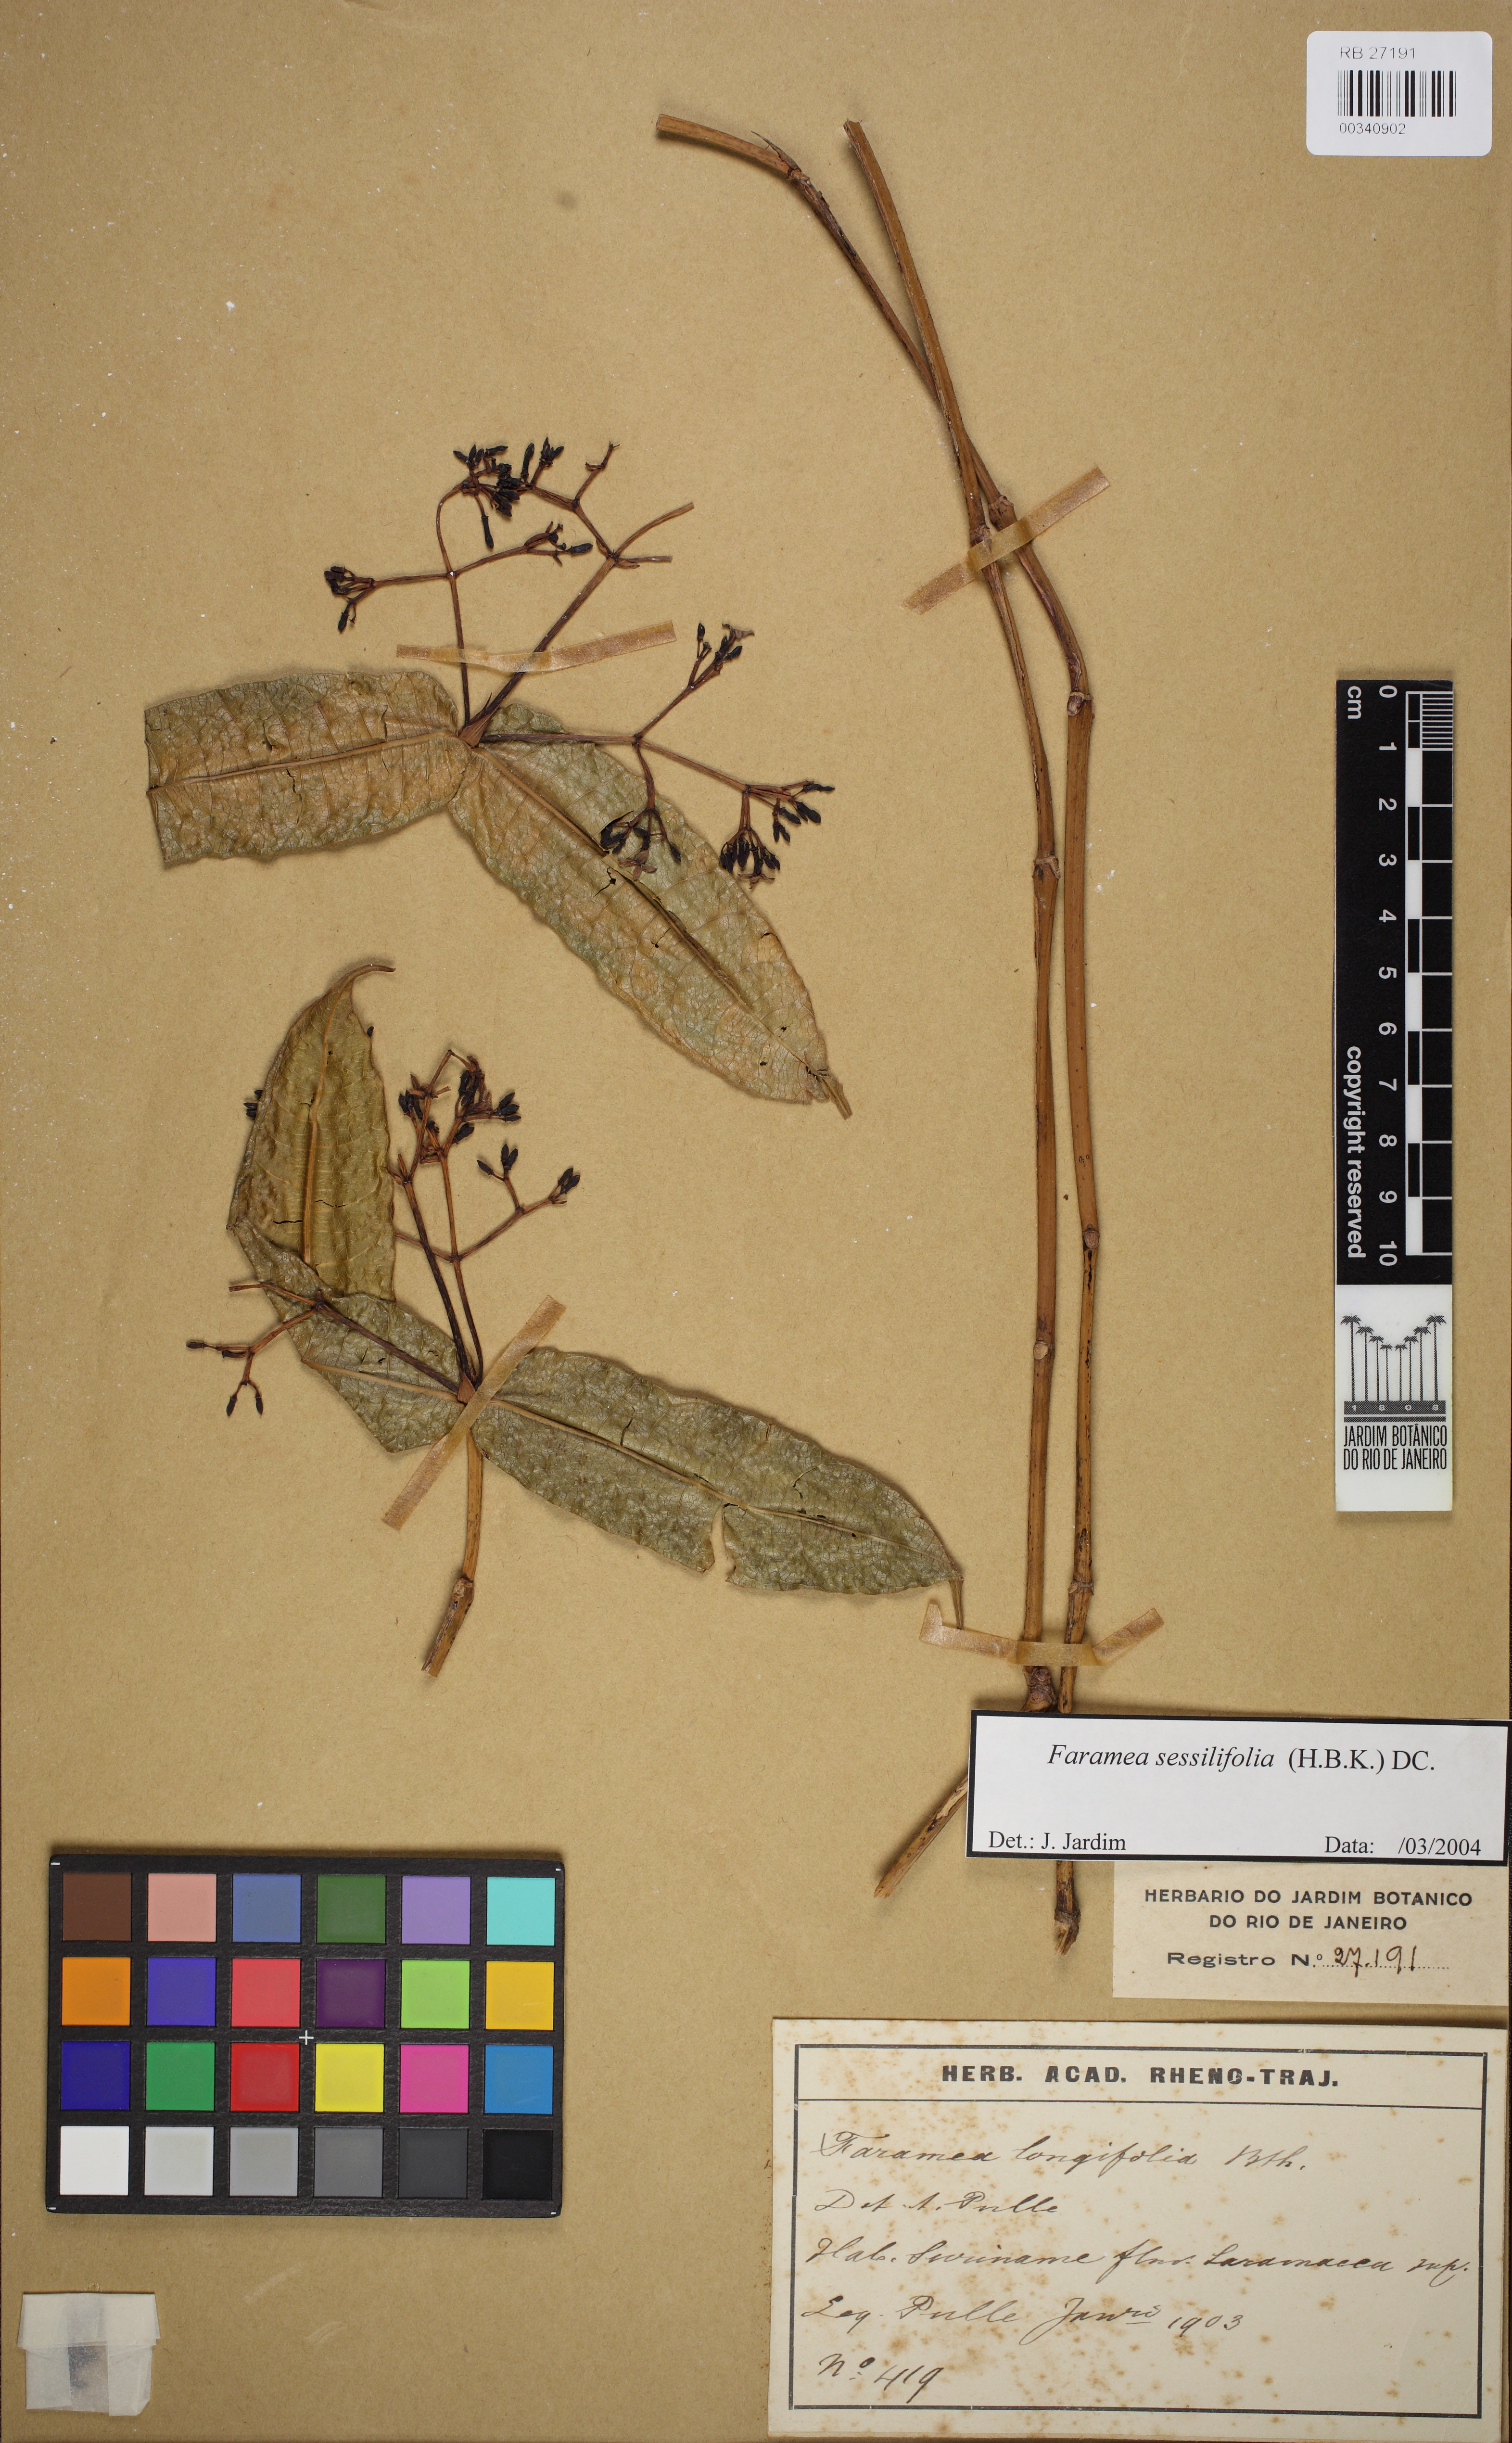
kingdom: Plantae
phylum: Tracheophyta
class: Magnoliopsida
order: Gentianales
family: Rubiaceae
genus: Faramea
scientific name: Faramea sessilifolia
